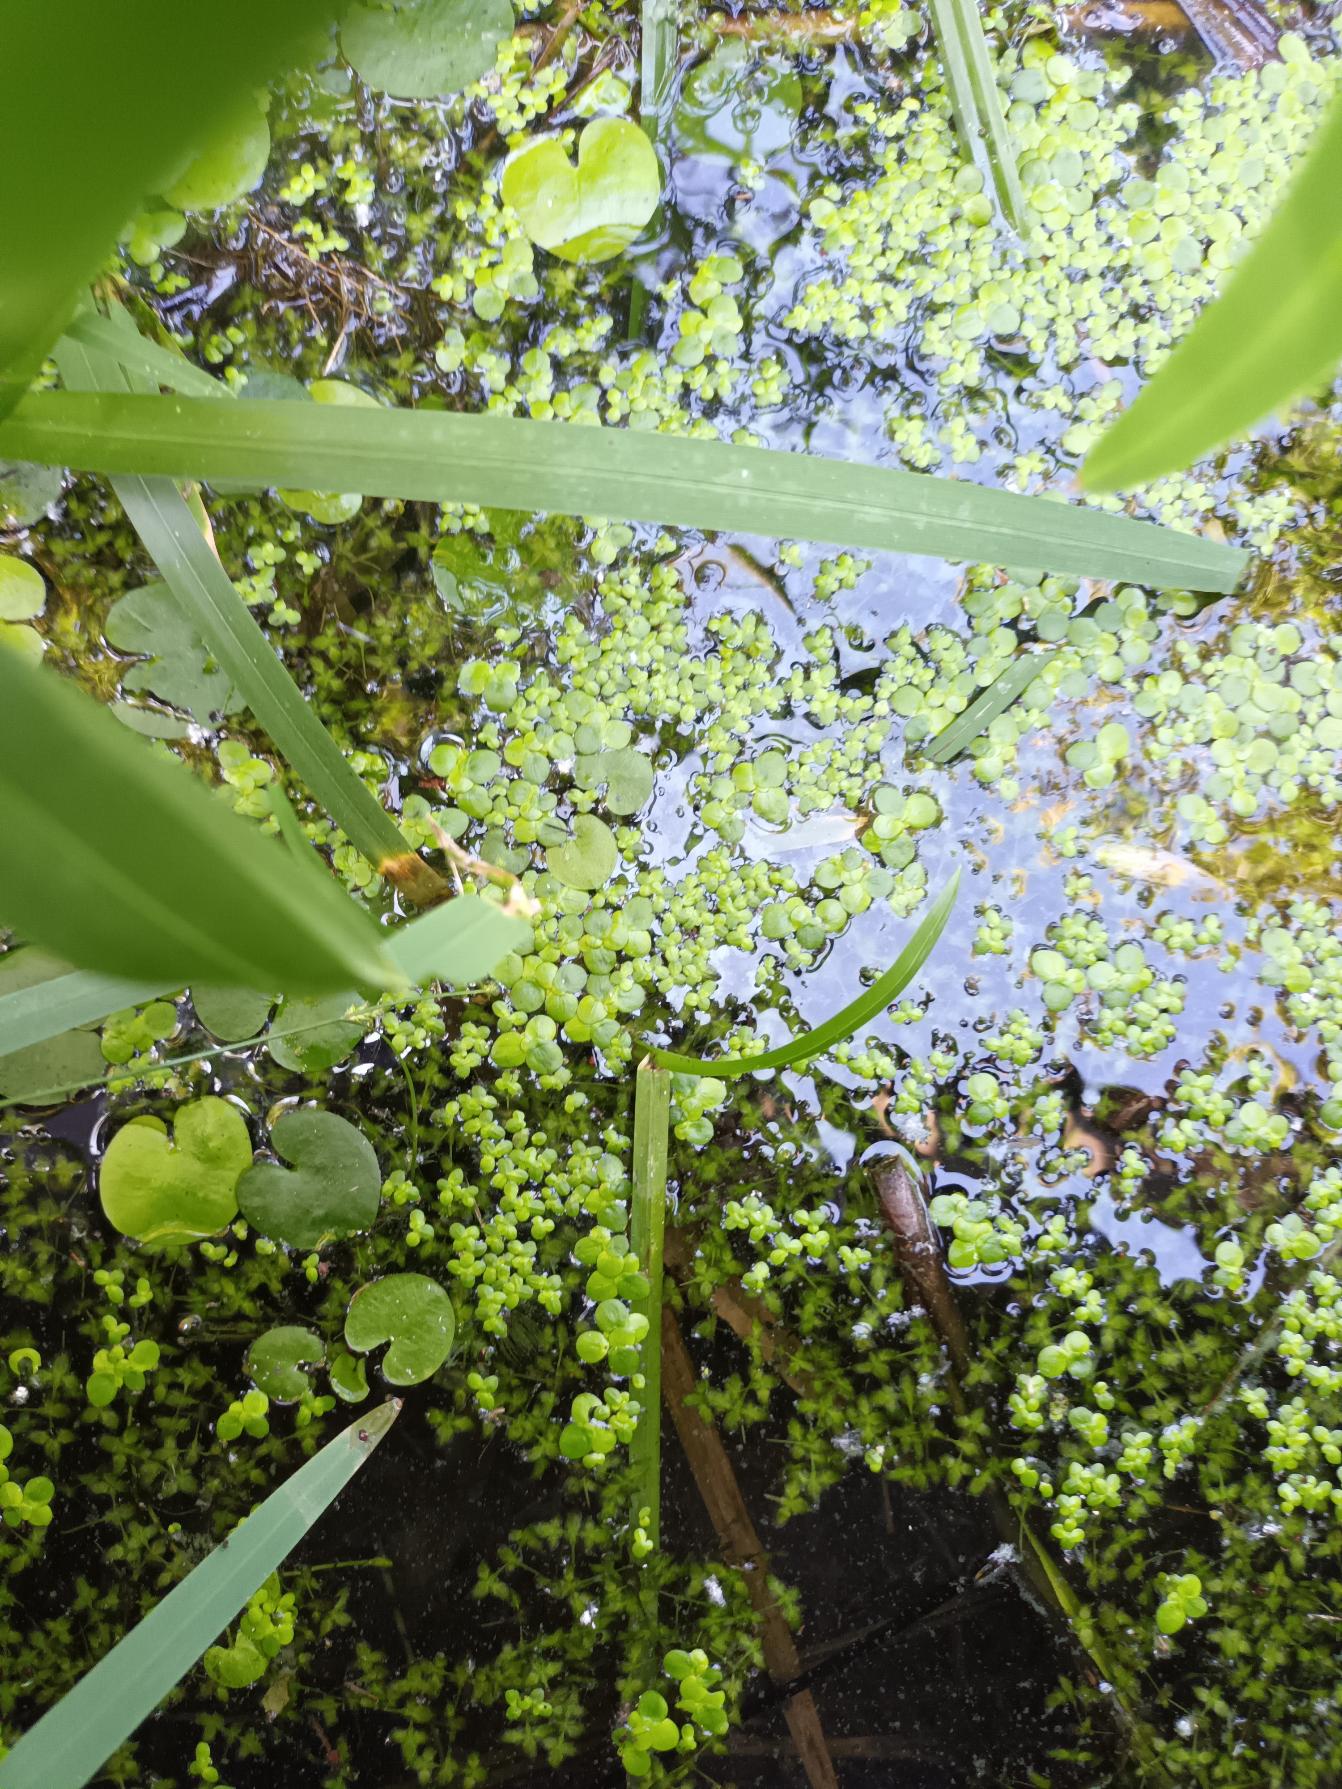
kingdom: Plantae
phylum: Tracheophyta
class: Liliopsida
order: Alismatales
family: Araceae
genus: Spirodela
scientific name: Spirodela polyrhiza
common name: Stor andemad
